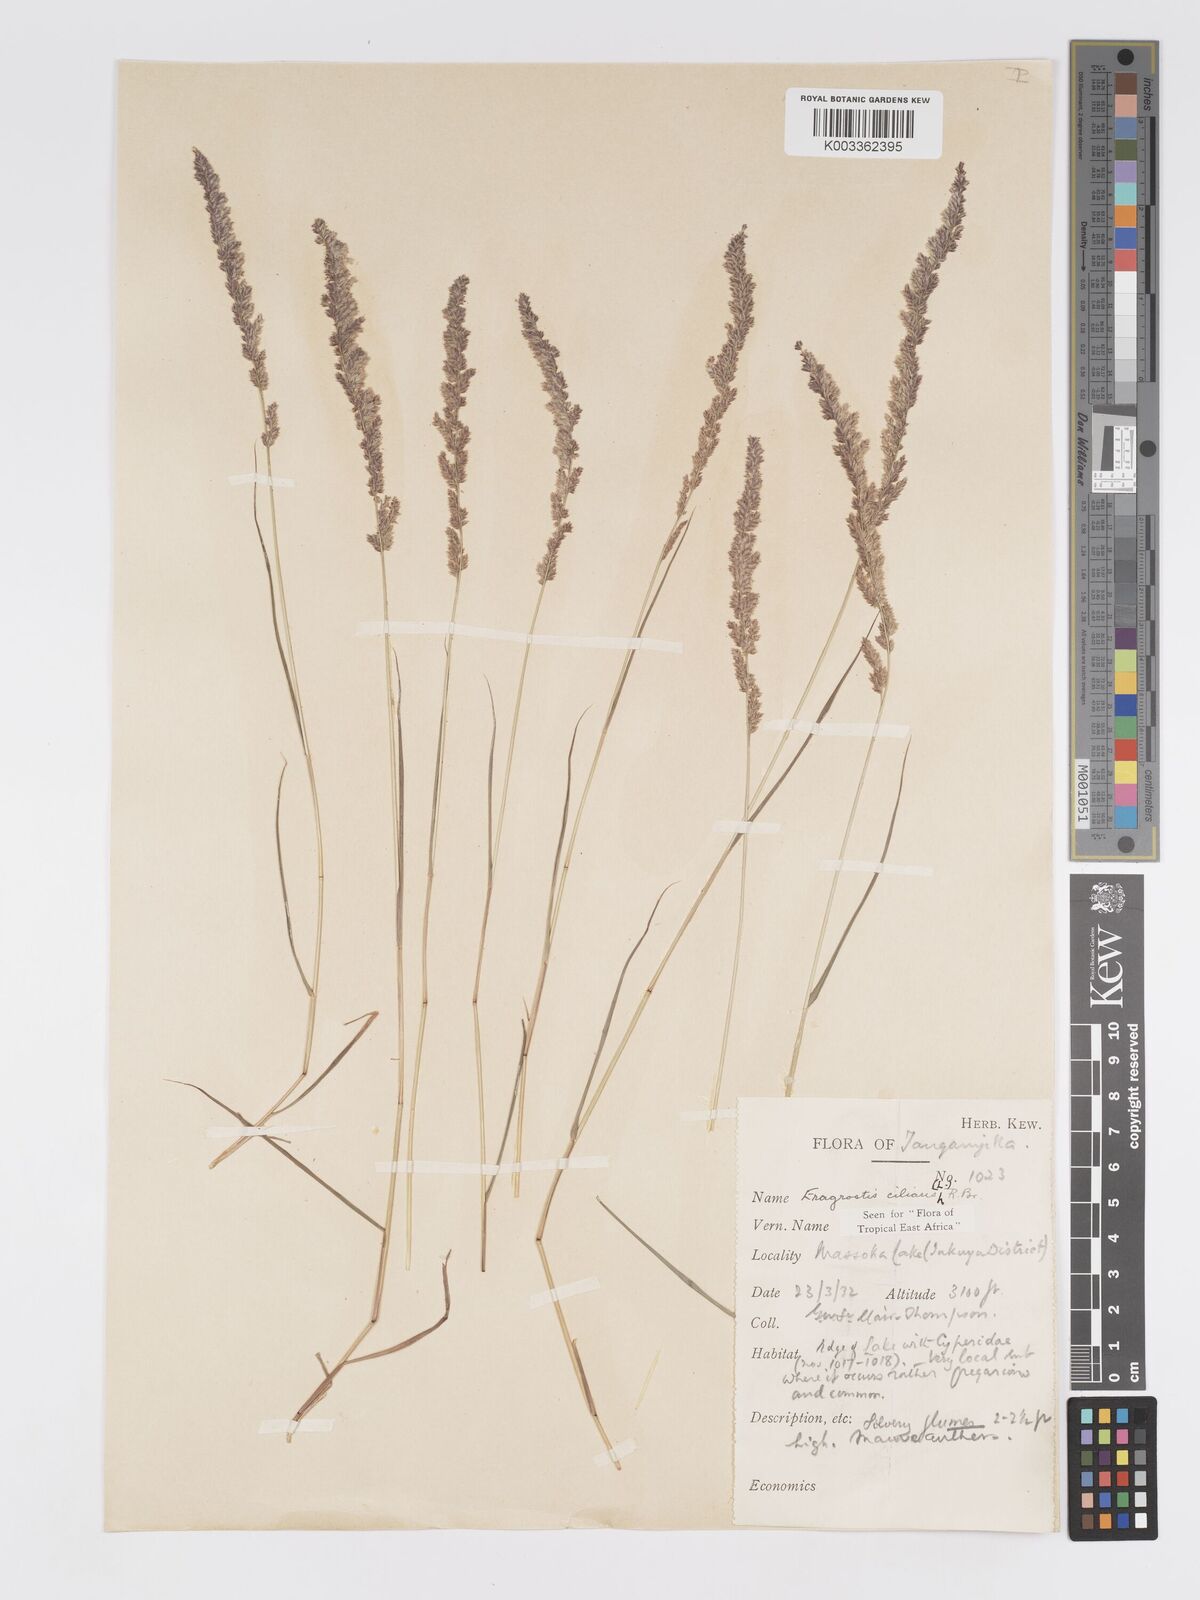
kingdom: Plantae
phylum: Tracheophyta
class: Liliopsida
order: Poales
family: Poaceae
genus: Eragrostis
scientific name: Eragrostis ciliaris
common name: Gophertail lovegrass
